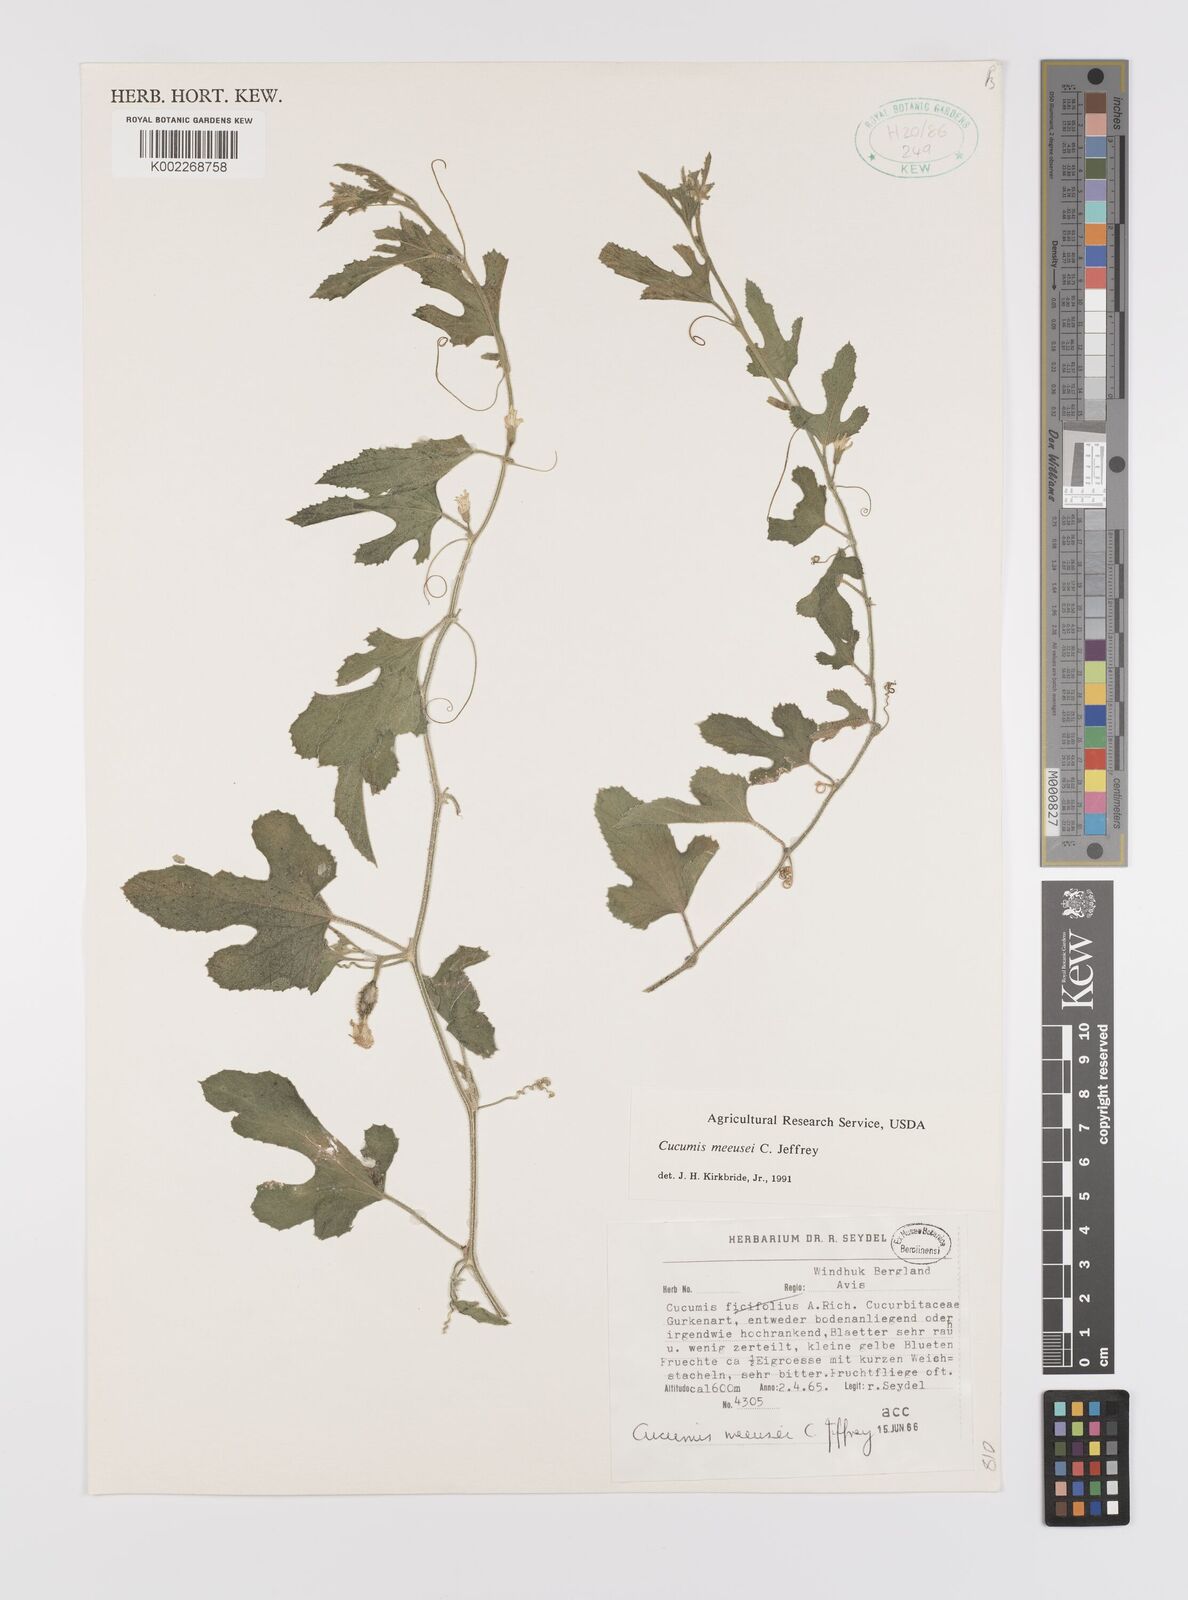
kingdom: Plantae
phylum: Tracheophyta
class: Magnoliopsida
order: Cucurbitales
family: Cucurbitaceae
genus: Cucumis
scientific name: Cucumis meeusei
